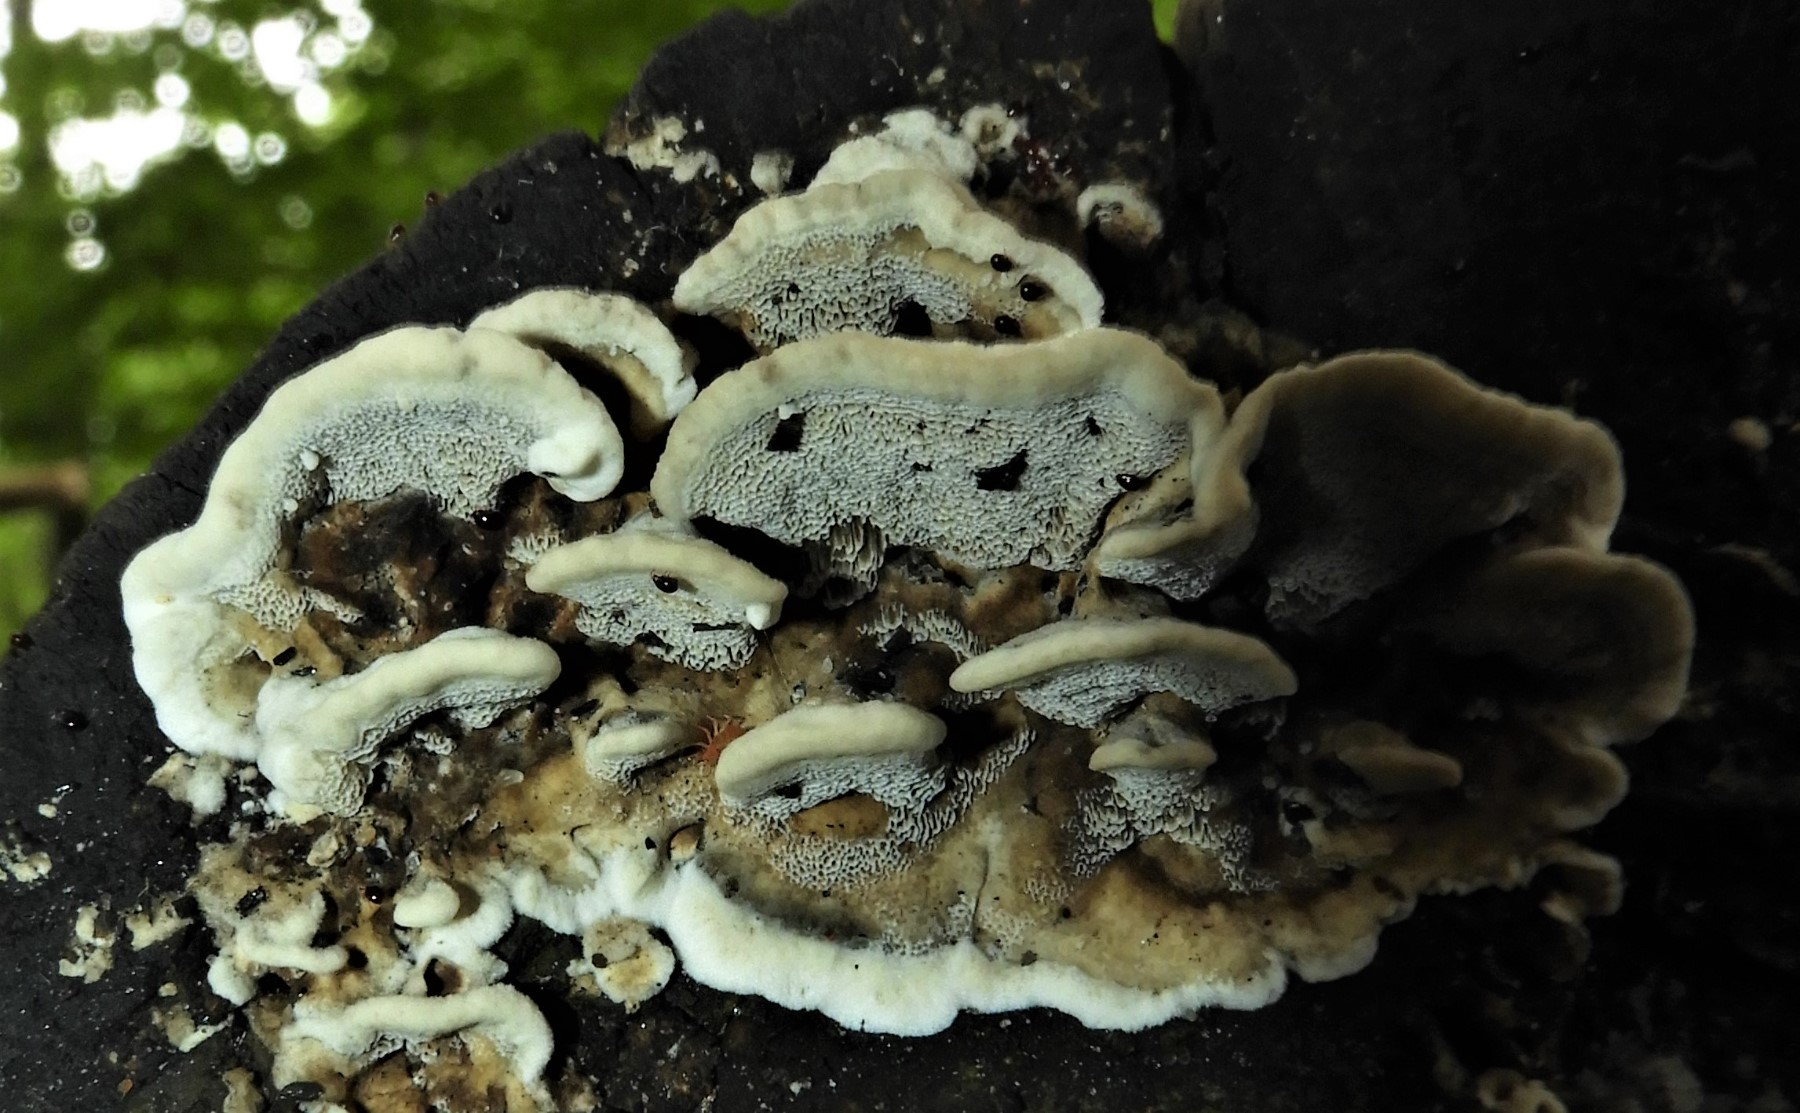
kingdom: Fungi
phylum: Basidiomycota
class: Agaricomycetes
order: Polyporales
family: Phanerochaetaceae
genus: Bjerkandera
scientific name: Bjerkandera adusta
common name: sveden sodporesvamp
